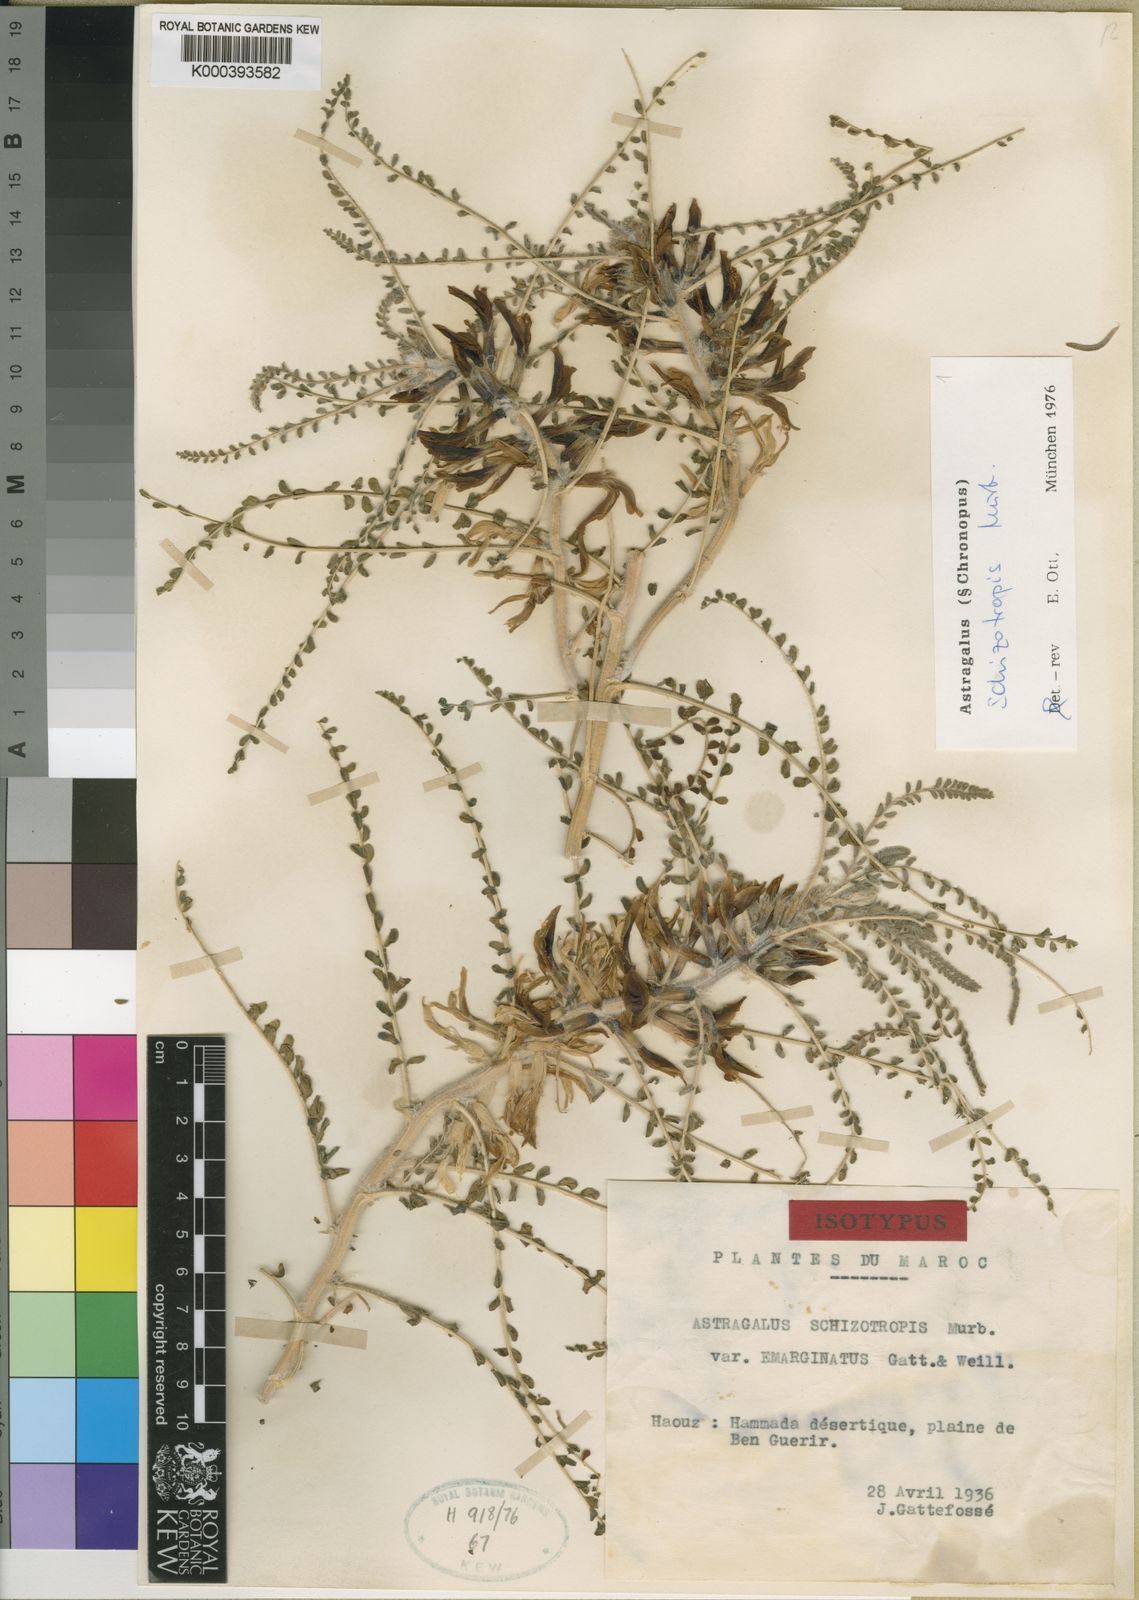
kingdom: Plantae
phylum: Tracheophyta
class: Magnoliopsida
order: Fabales
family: Fabaceae
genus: Astragalus
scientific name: Astragalus schizotropis
